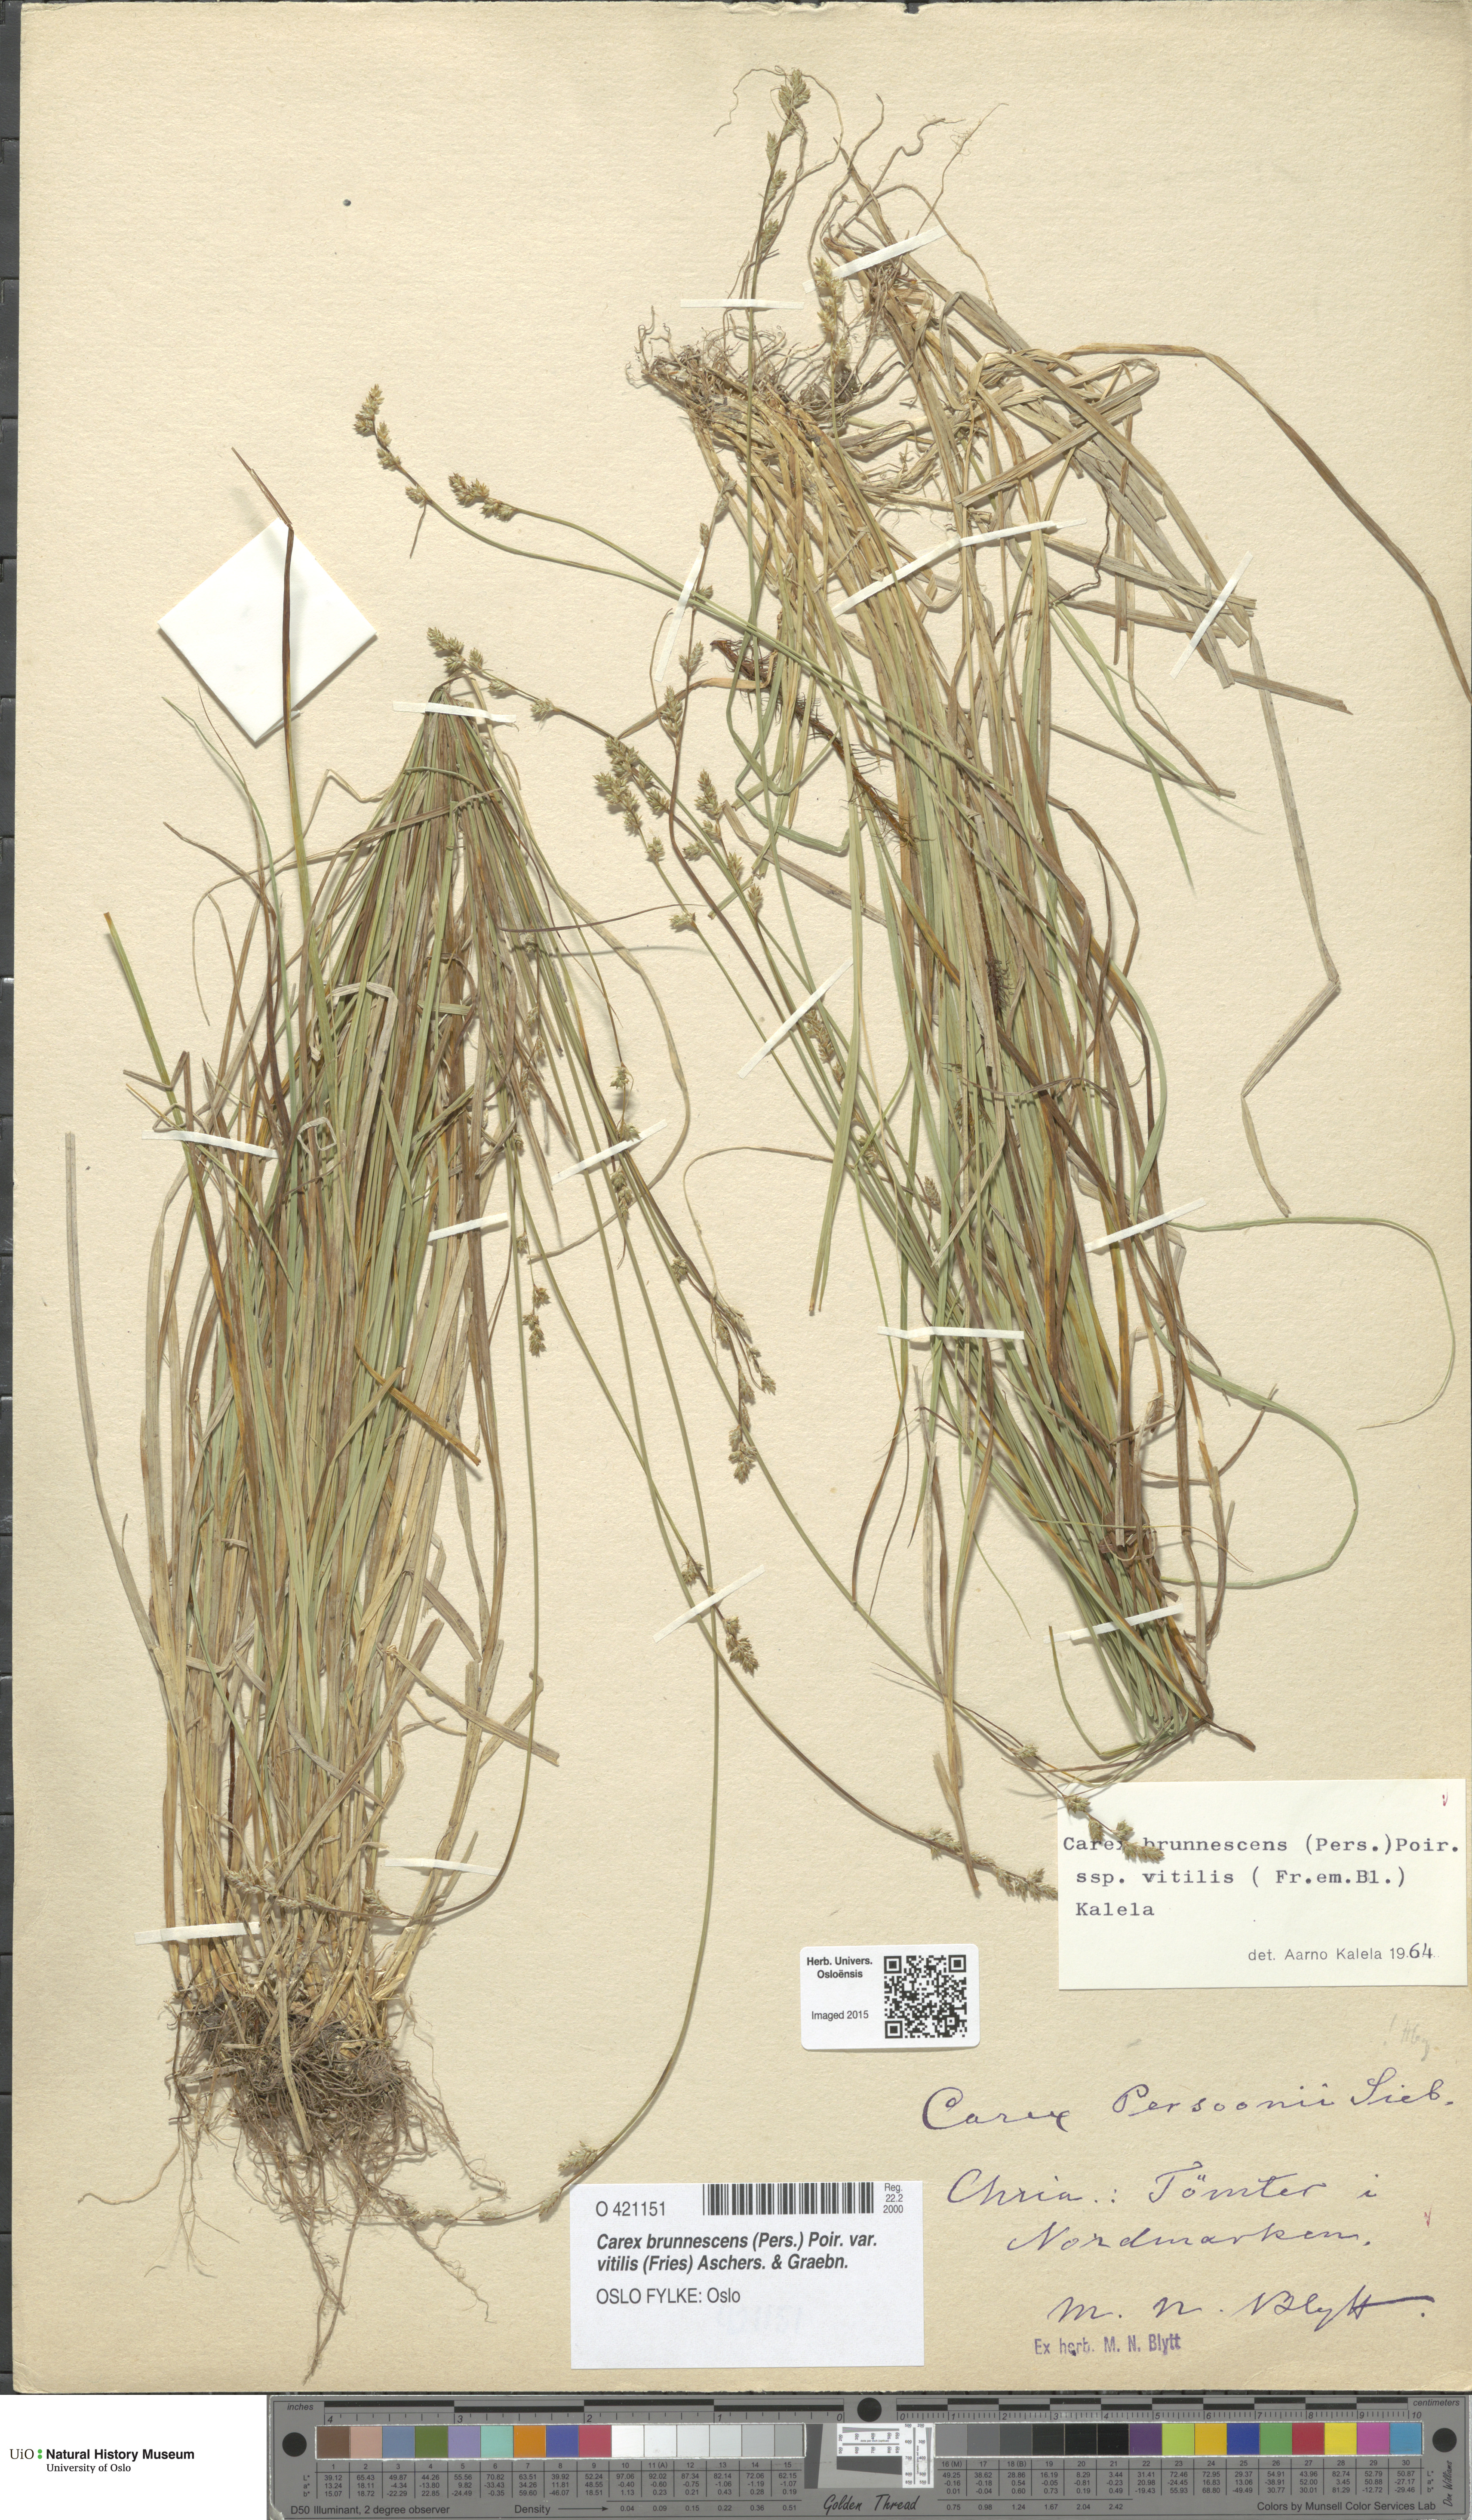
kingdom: Plantae
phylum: Tracheophyta
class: Liliopsida
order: Poales
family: Cyperaceae
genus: Carex
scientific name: Carex brunnescens
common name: Brown sedge
